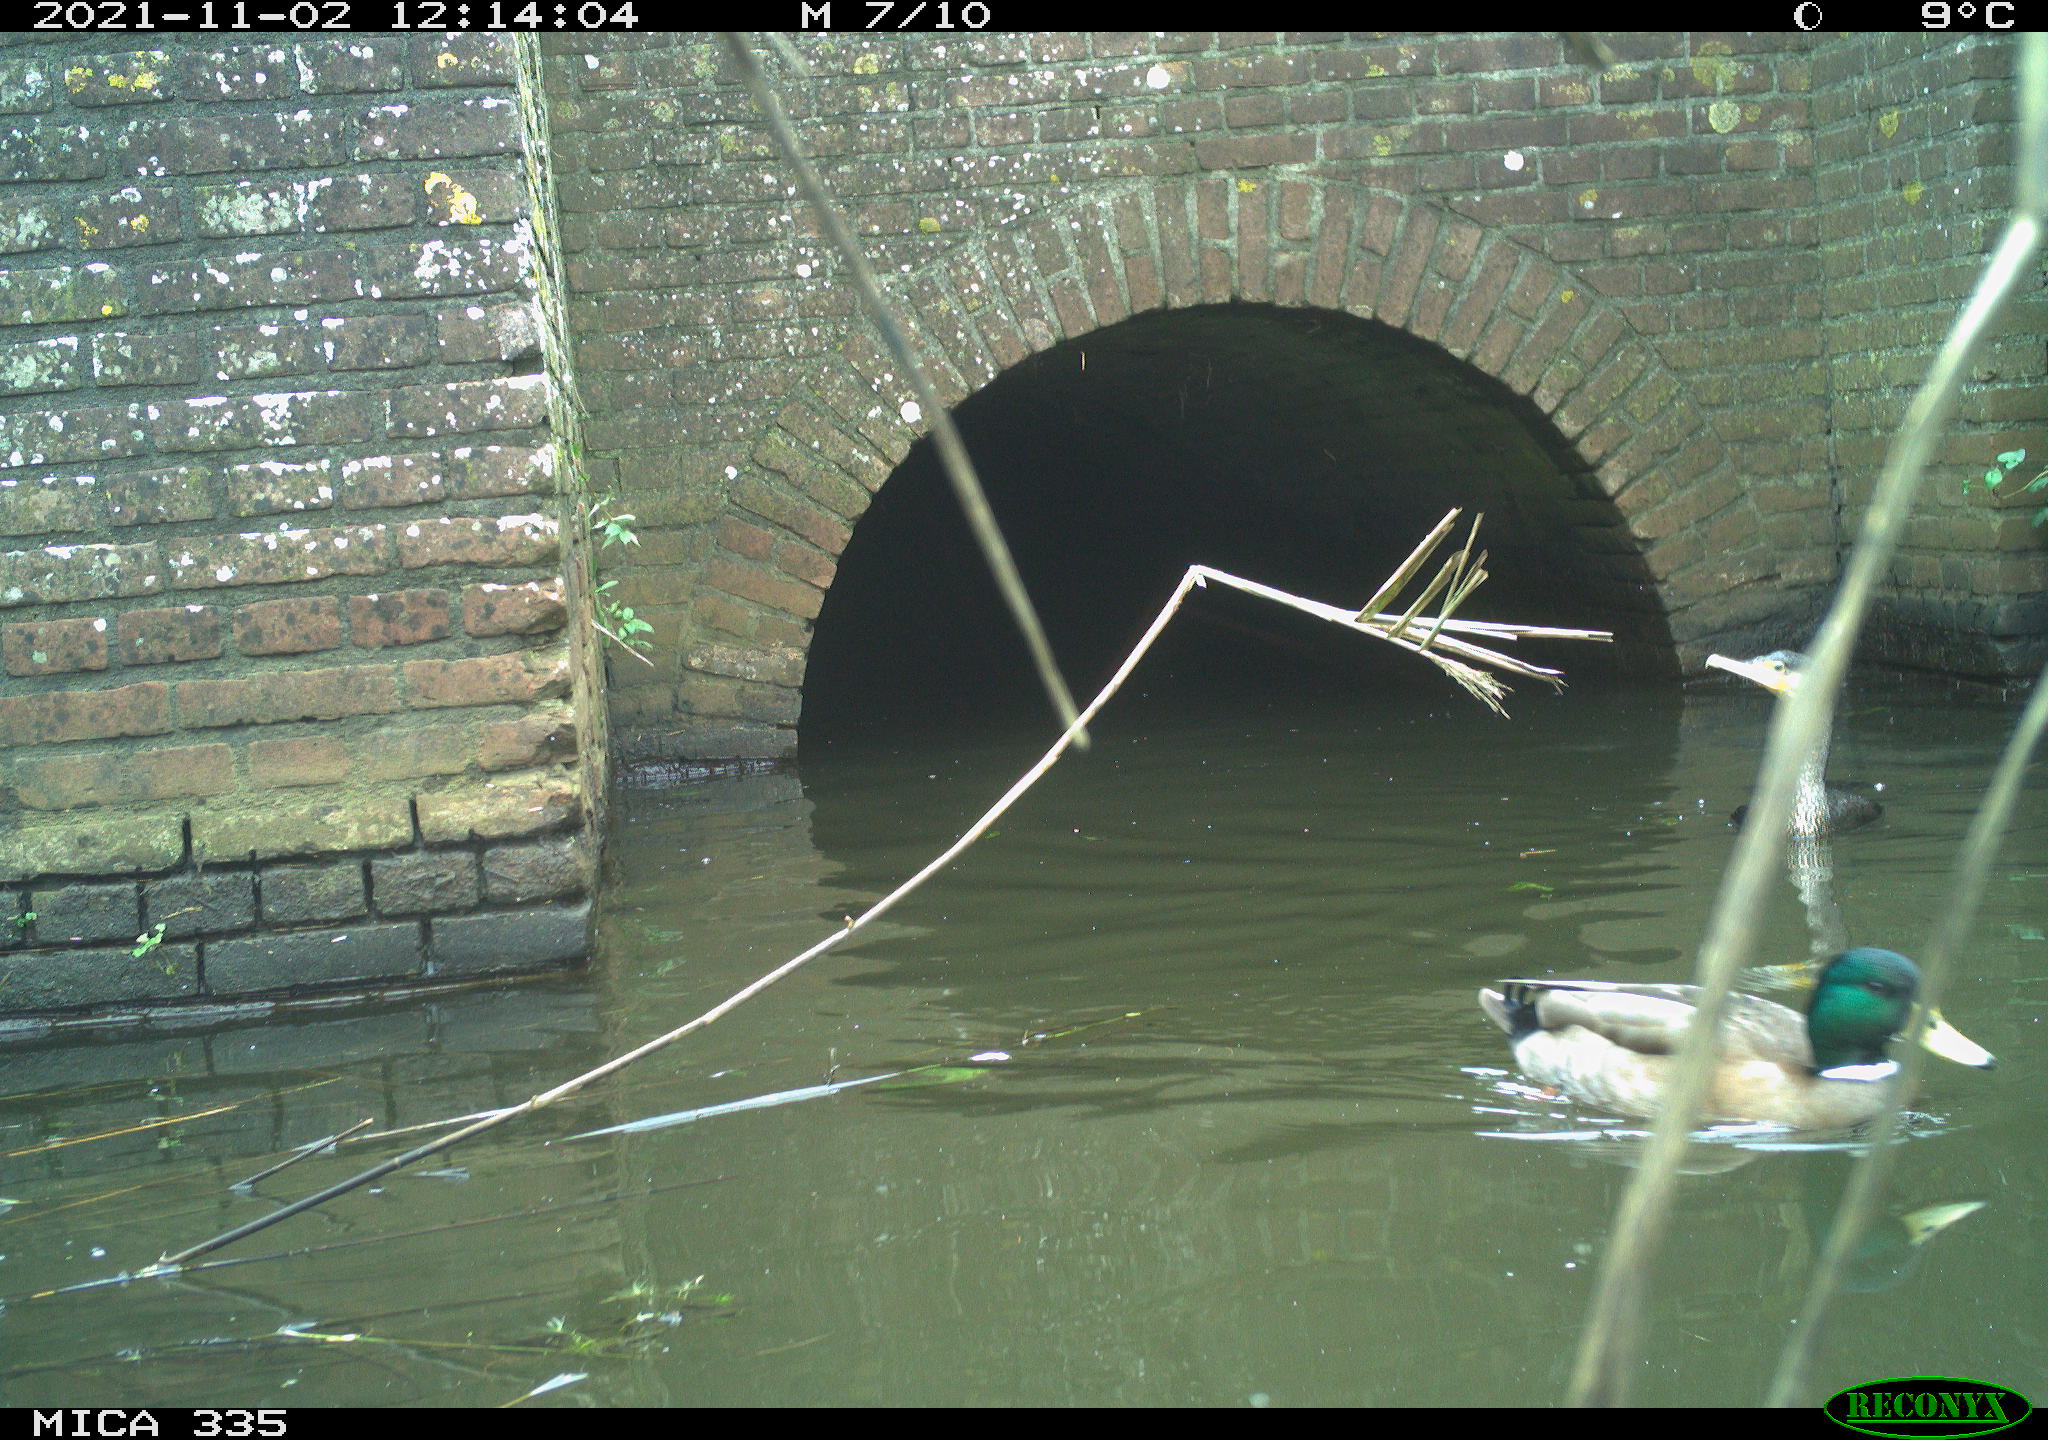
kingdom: Animalia
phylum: Chordata
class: Aves
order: Podicipediformes
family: Podicipedidae
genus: Podiceps
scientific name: Podiceps cristatus
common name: Great crested grebe
